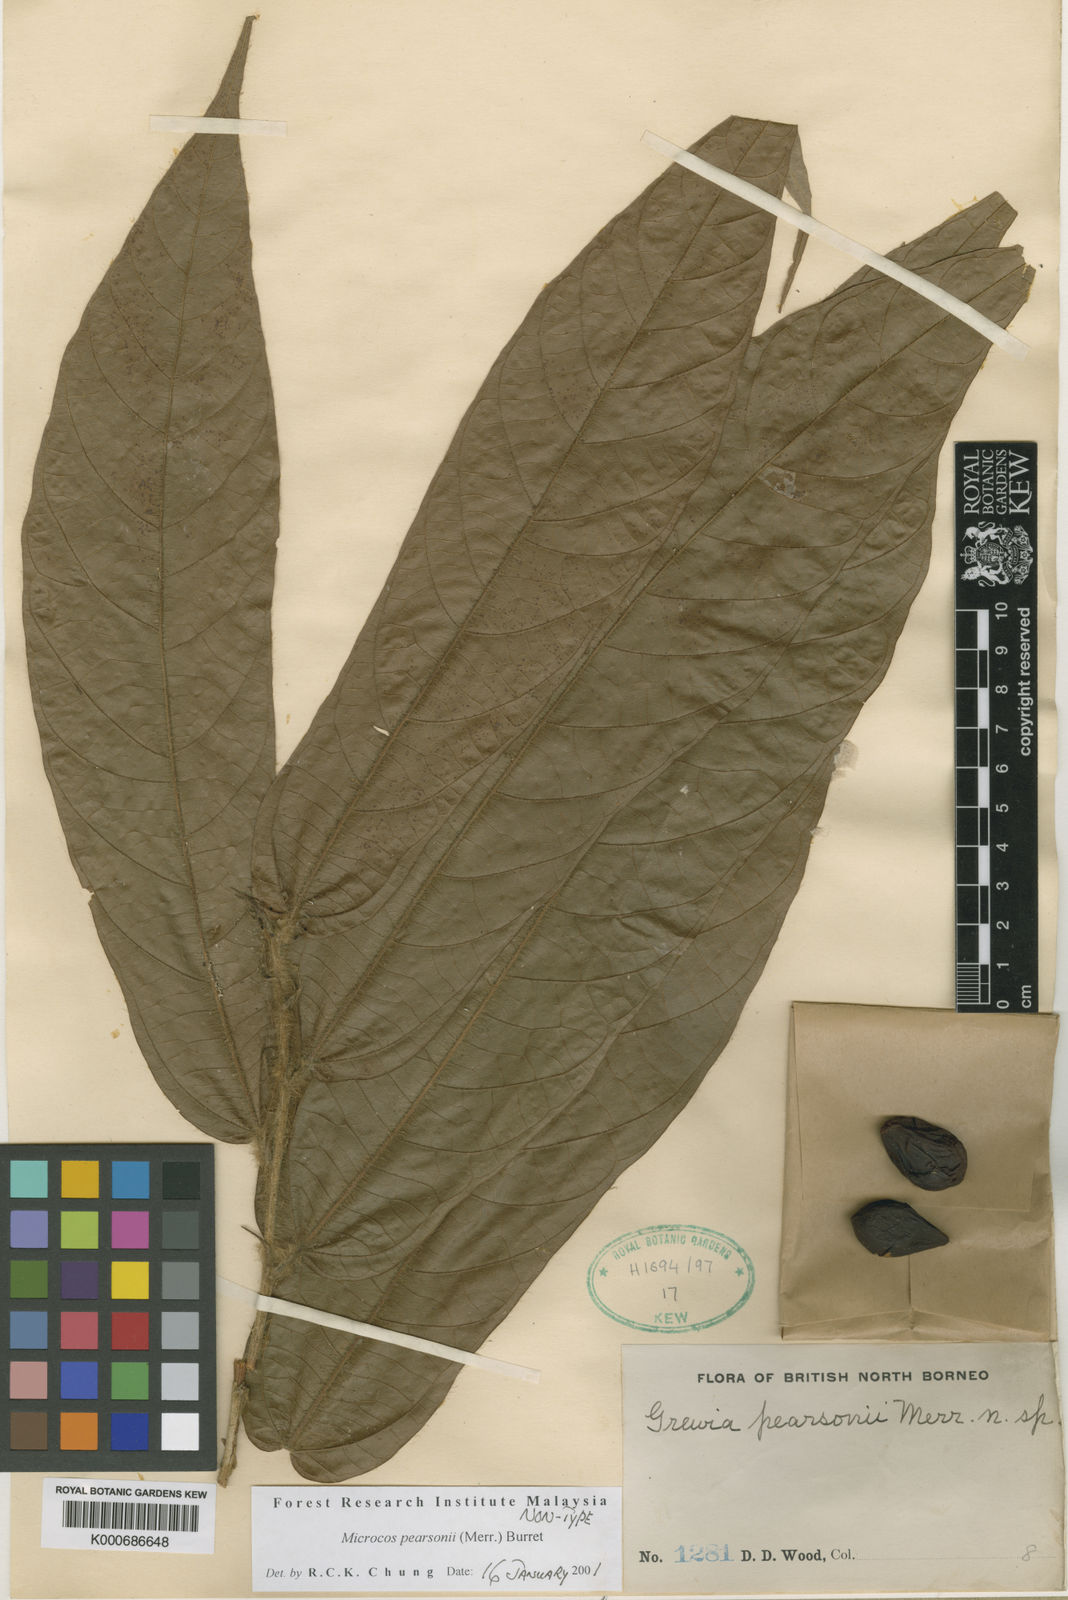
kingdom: Plantae
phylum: Tracheophyta
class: Magnoliopsida
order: Malvales
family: Malvaceae
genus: Microcos
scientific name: Microcos pearsonii
